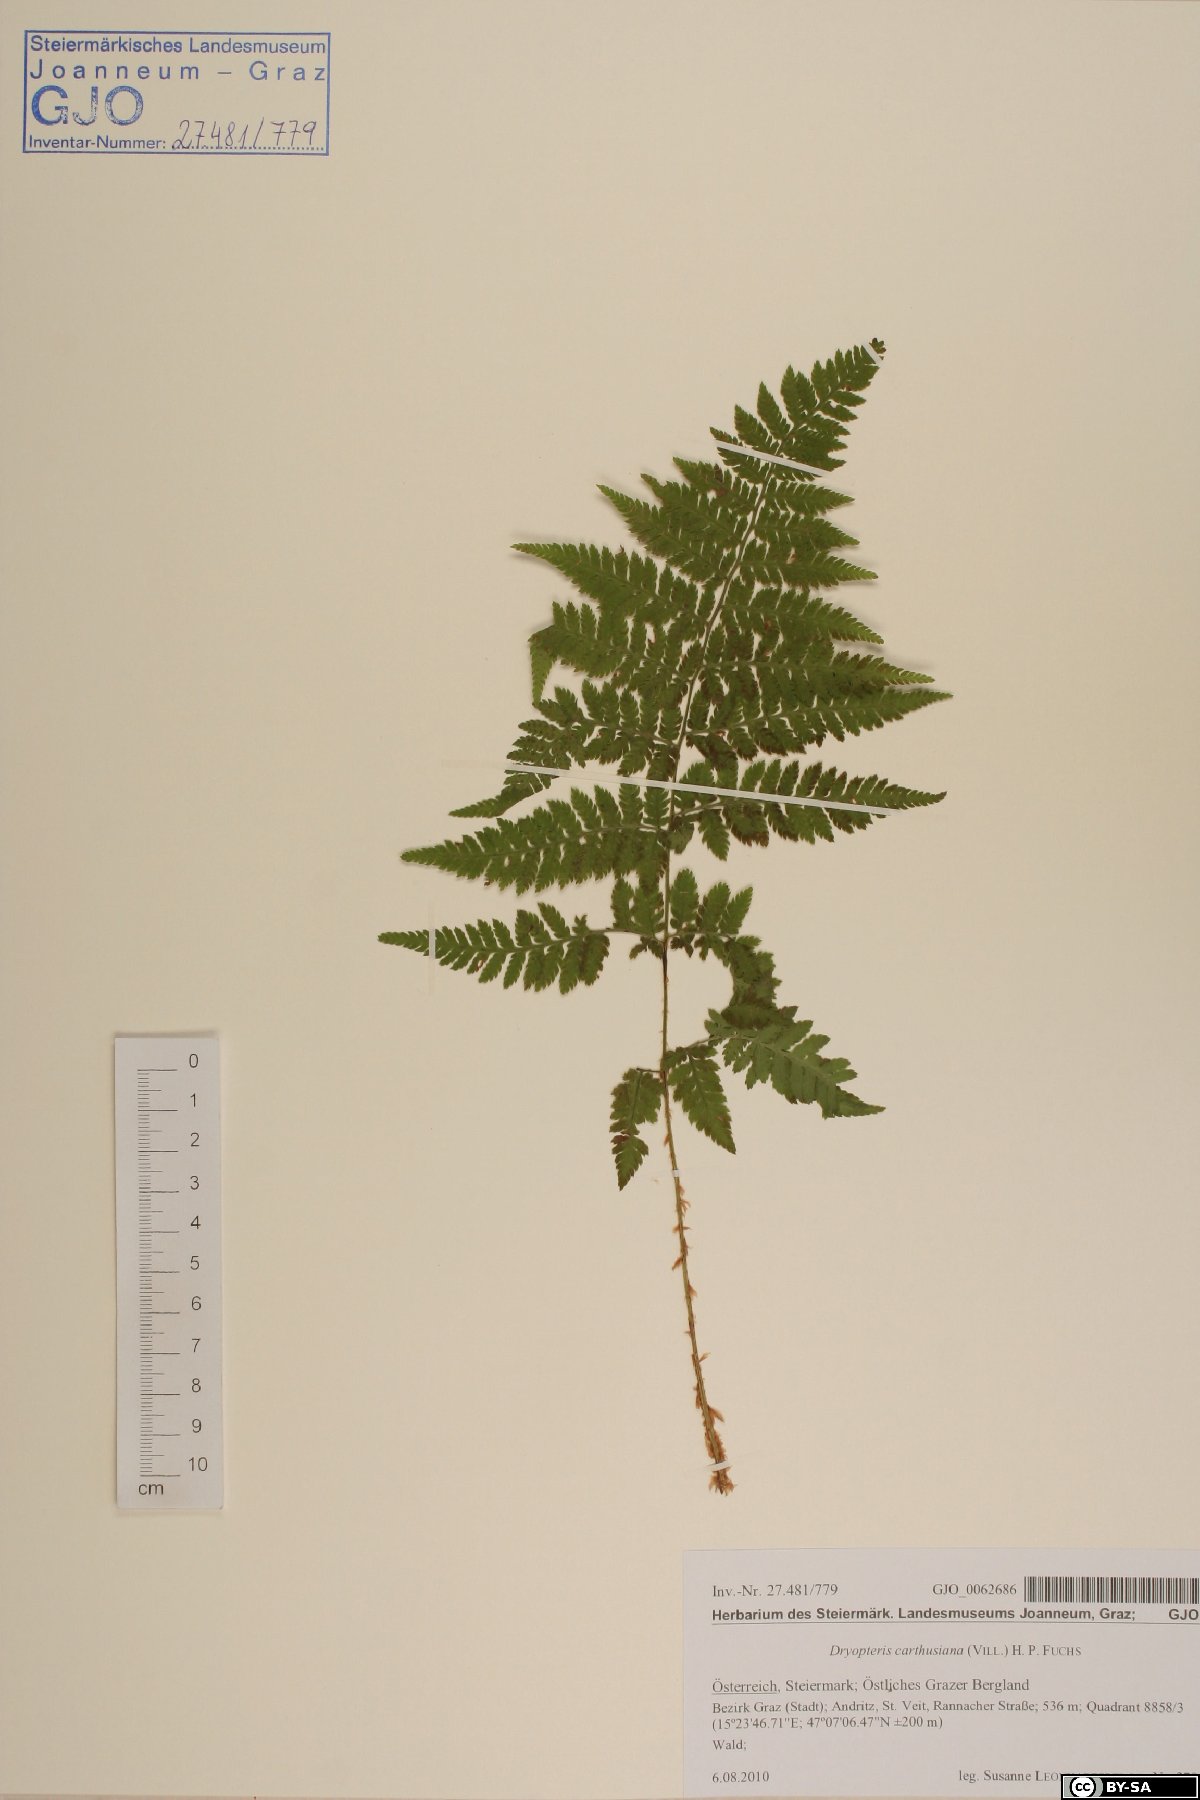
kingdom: Plantae
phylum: Tracheophyta
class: Polypodiopsida
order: Polypodiales
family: Dryopteridaceae
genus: Dryopteris
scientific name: Dryopteris carthusiana
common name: Narrow buckler-fern
